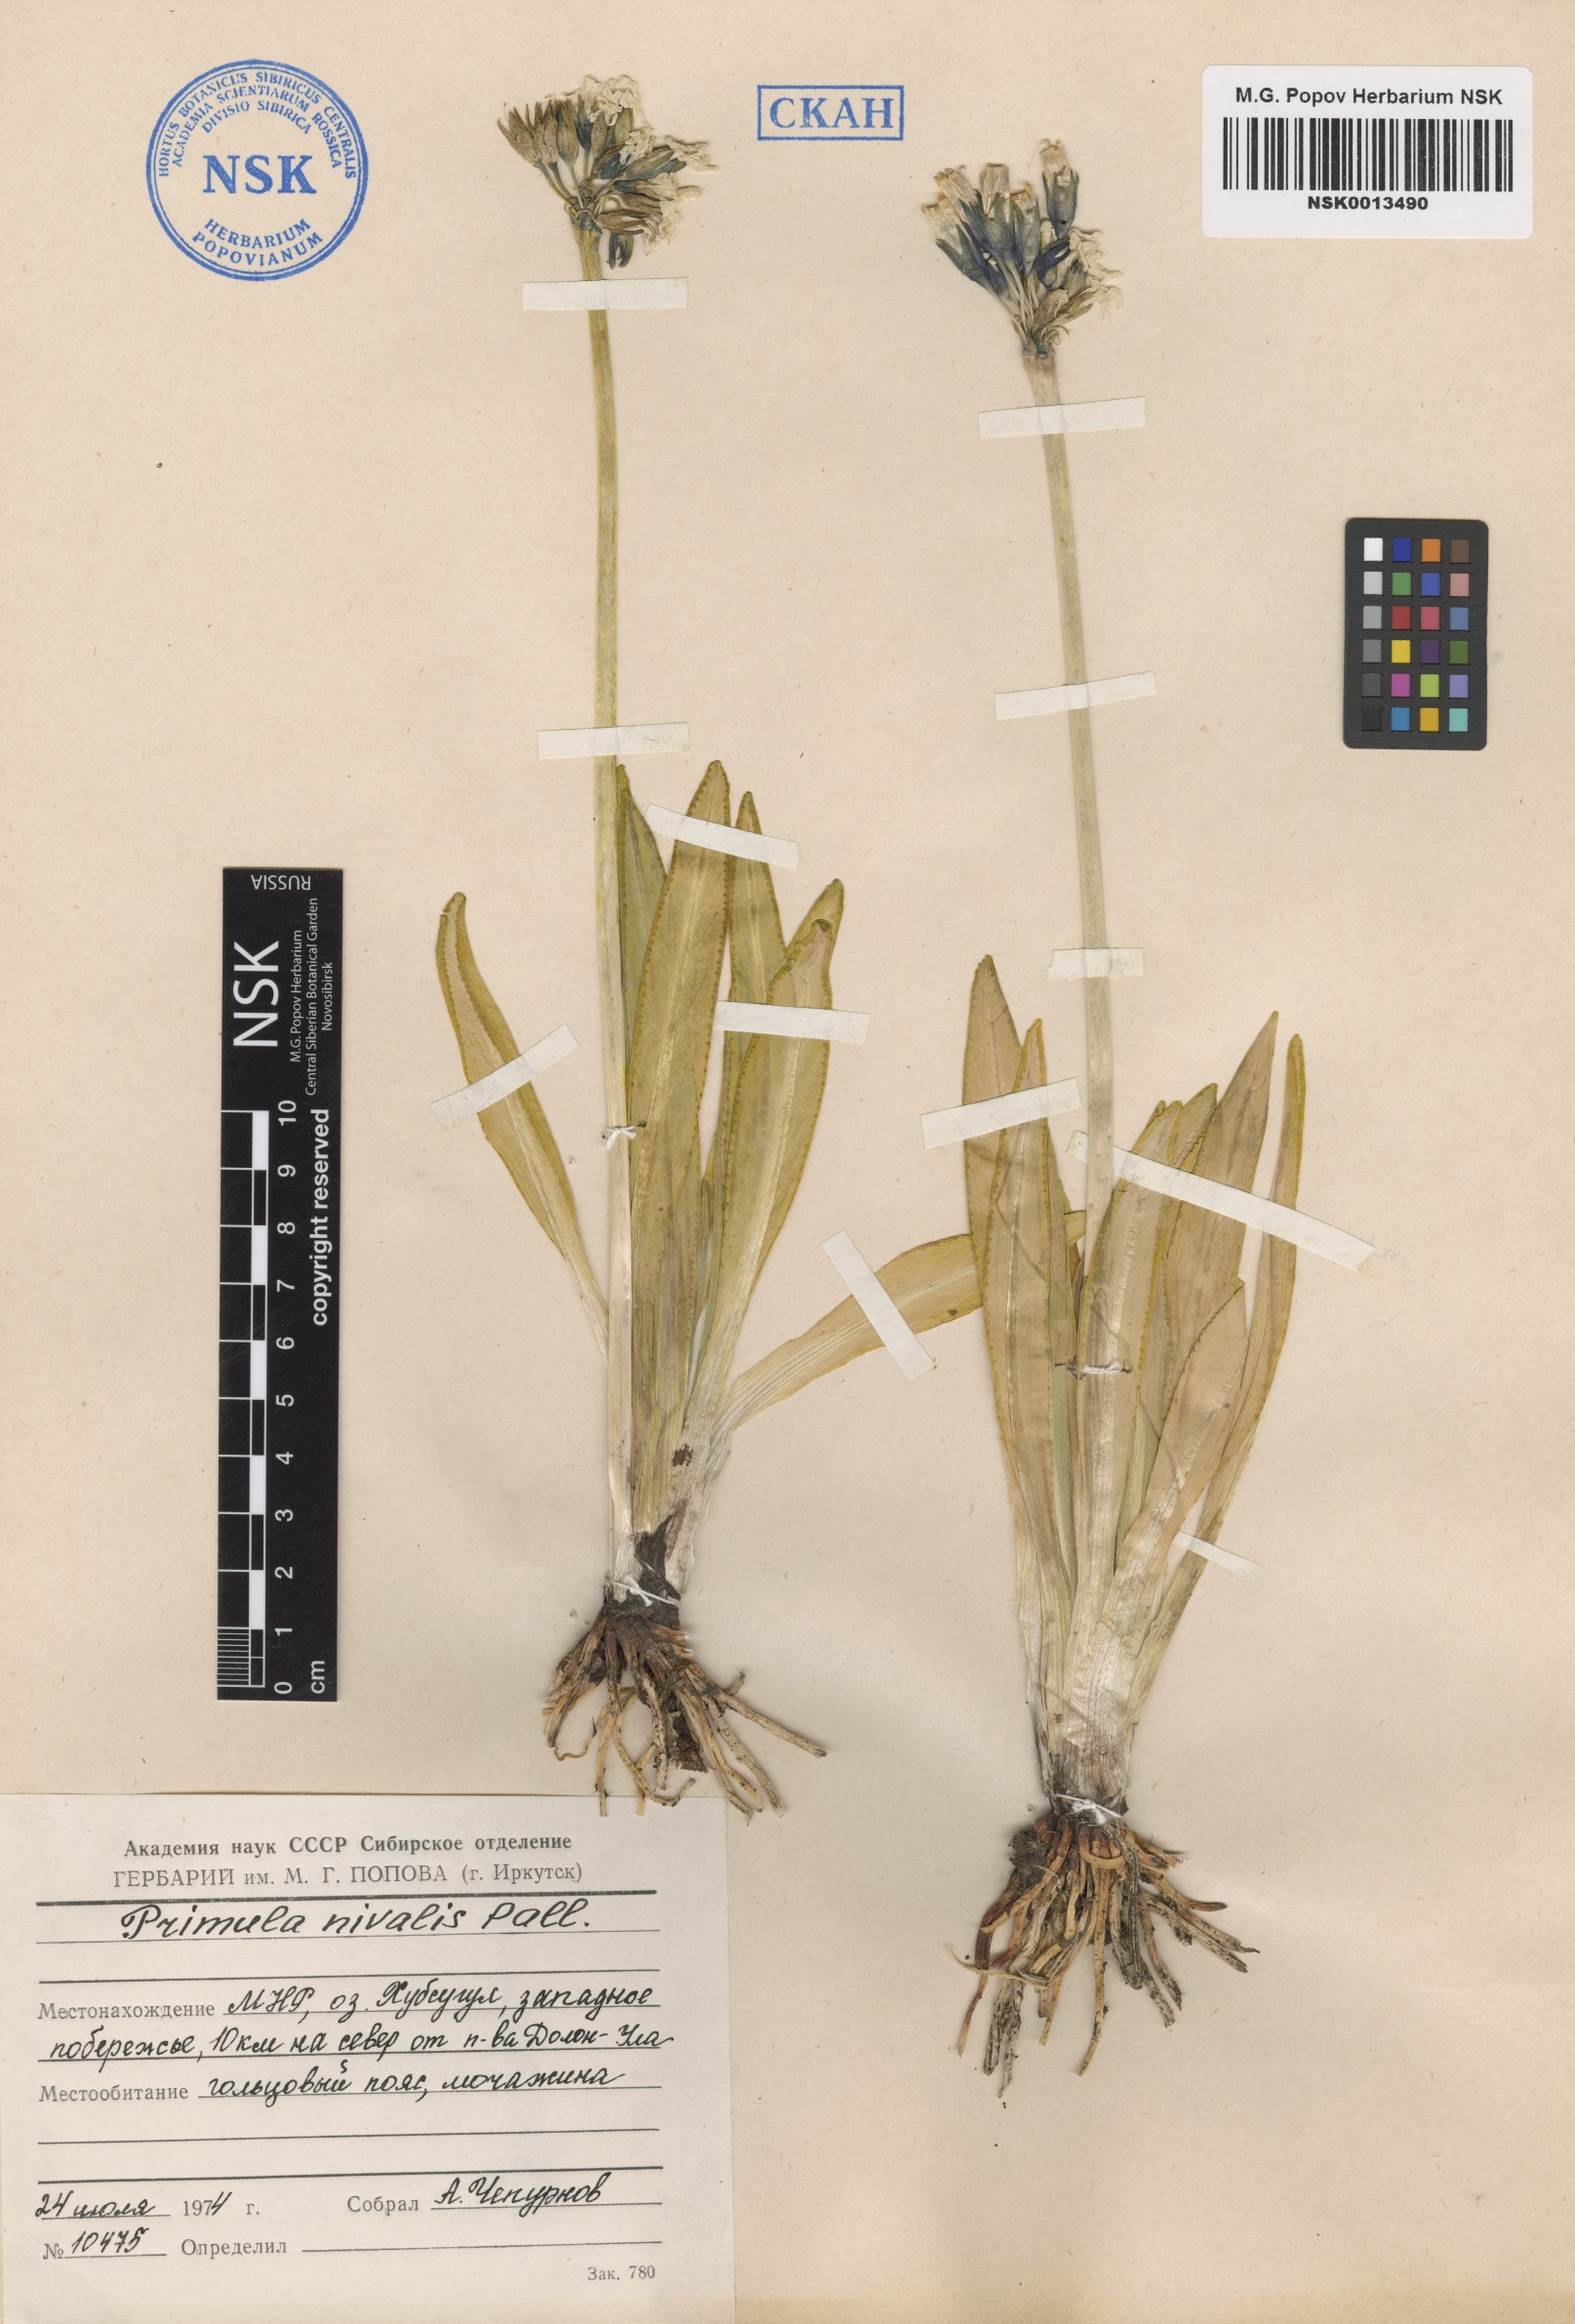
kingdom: Plantae
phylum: Tracheophyta
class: Magnoliopsida
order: Ericales
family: Primulaceae
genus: Primula
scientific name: Primula nivalis
